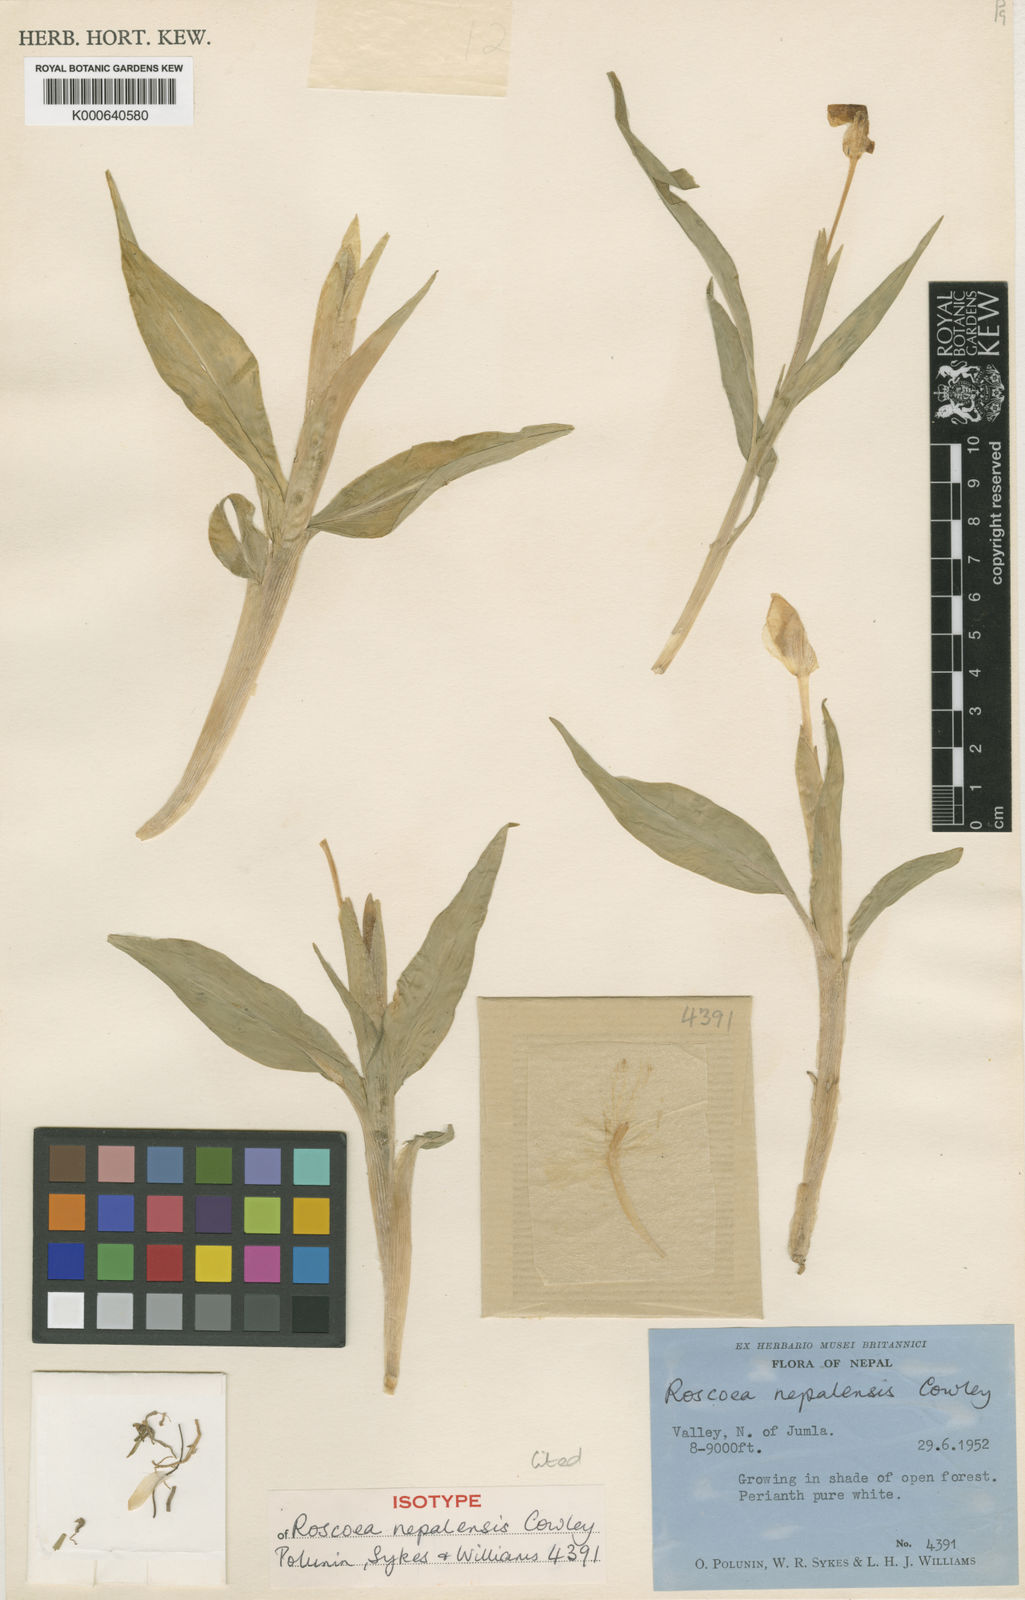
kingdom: Plantae
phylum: Tracheophyta
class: Liliopsida
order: Zingiberales
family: Zingiberaceae
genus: Roscoea
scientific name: Roscoea nepalensis
